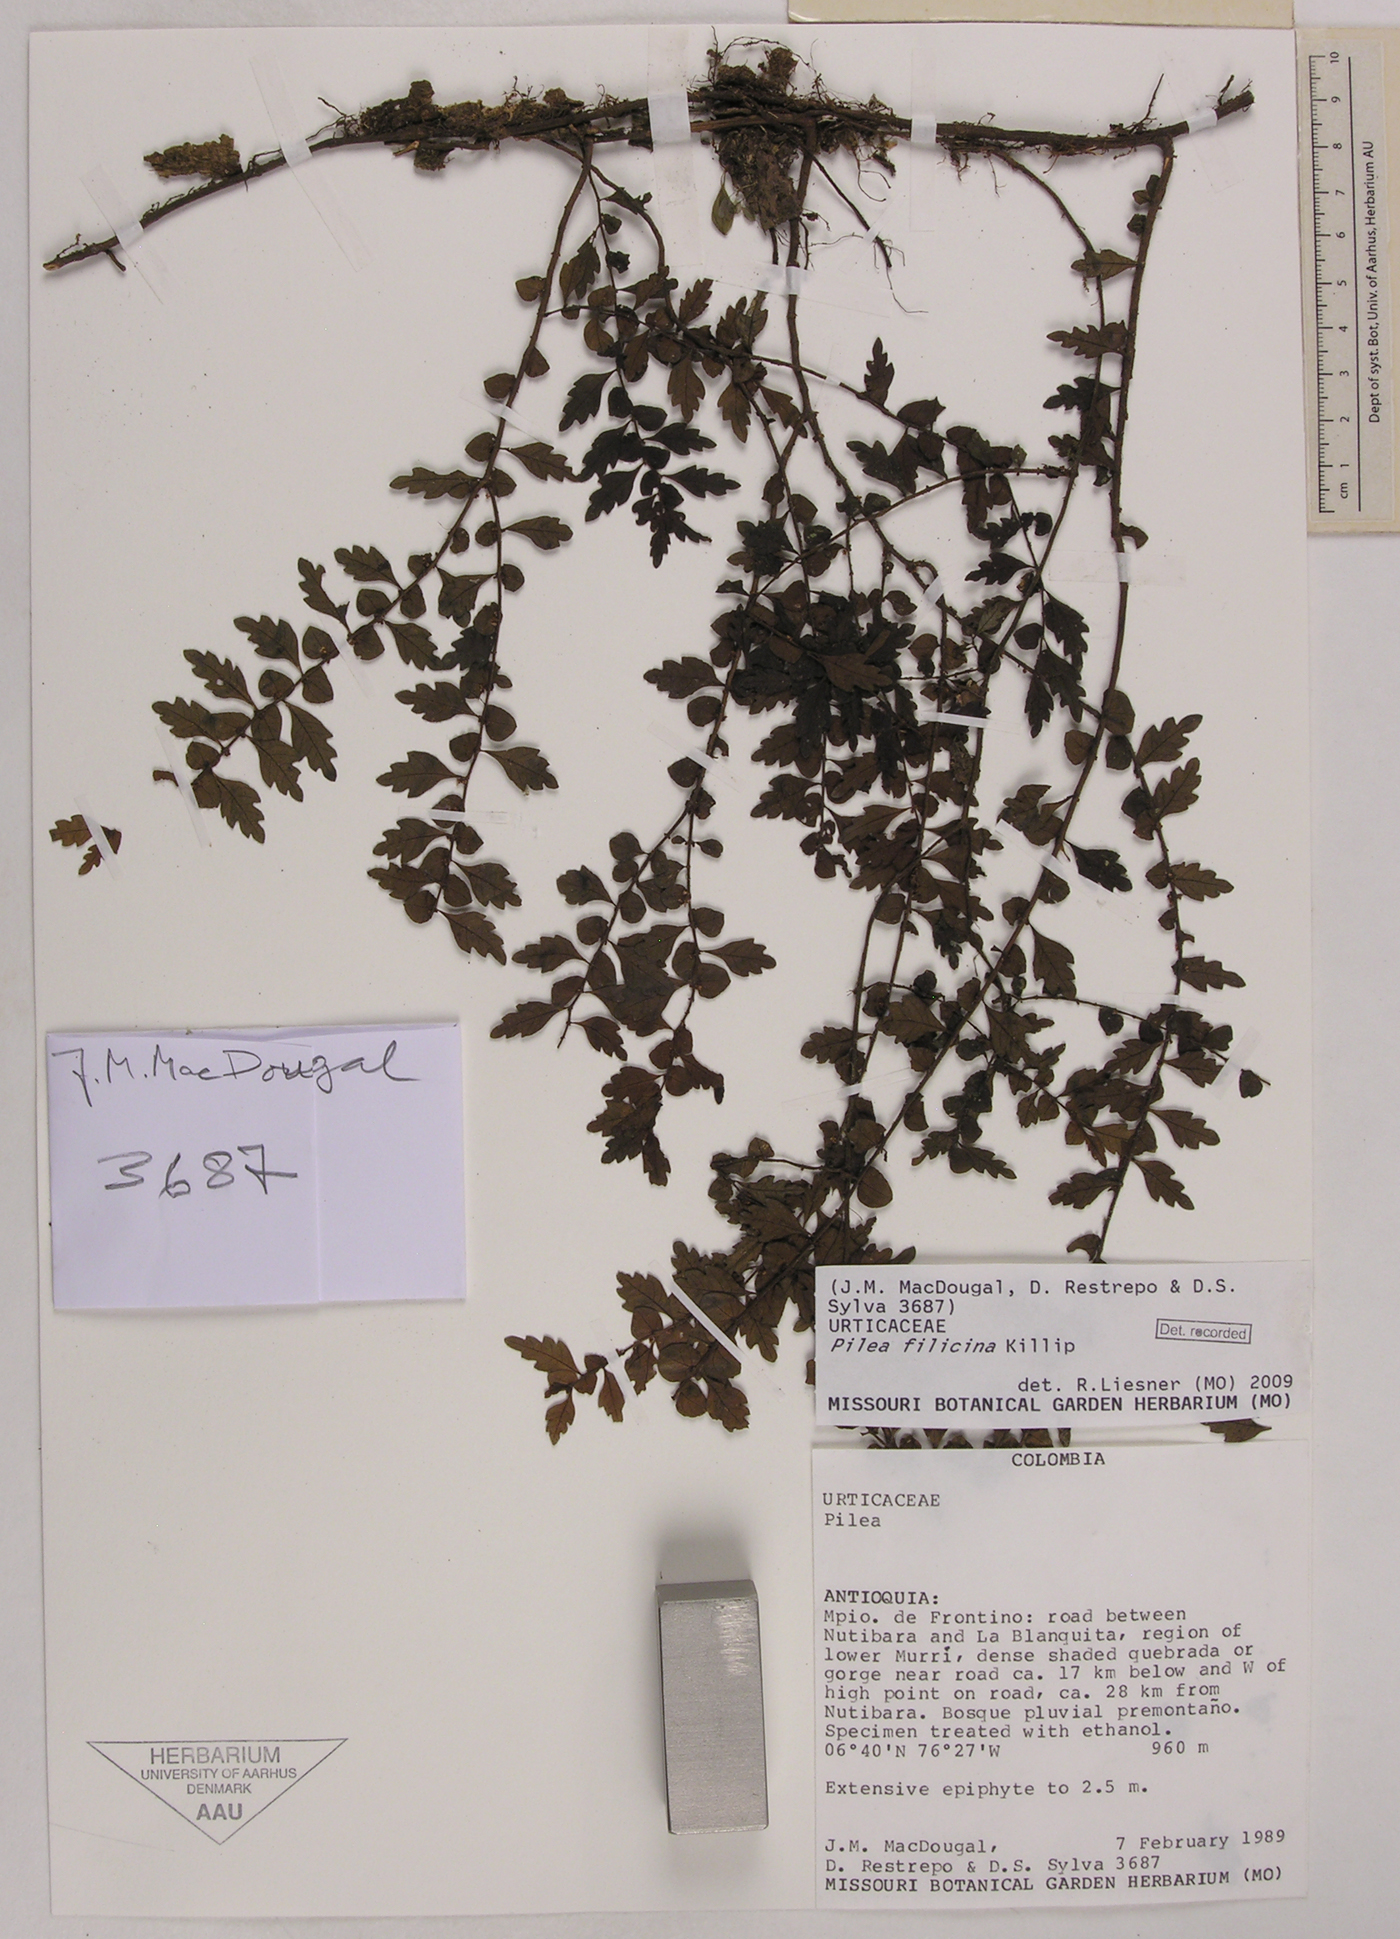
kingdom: Plantae
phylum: Tracheophyta
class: Magnoliopsida
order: Rosales
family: Urticaceae
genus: Pilea
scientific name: Pilea filicina
